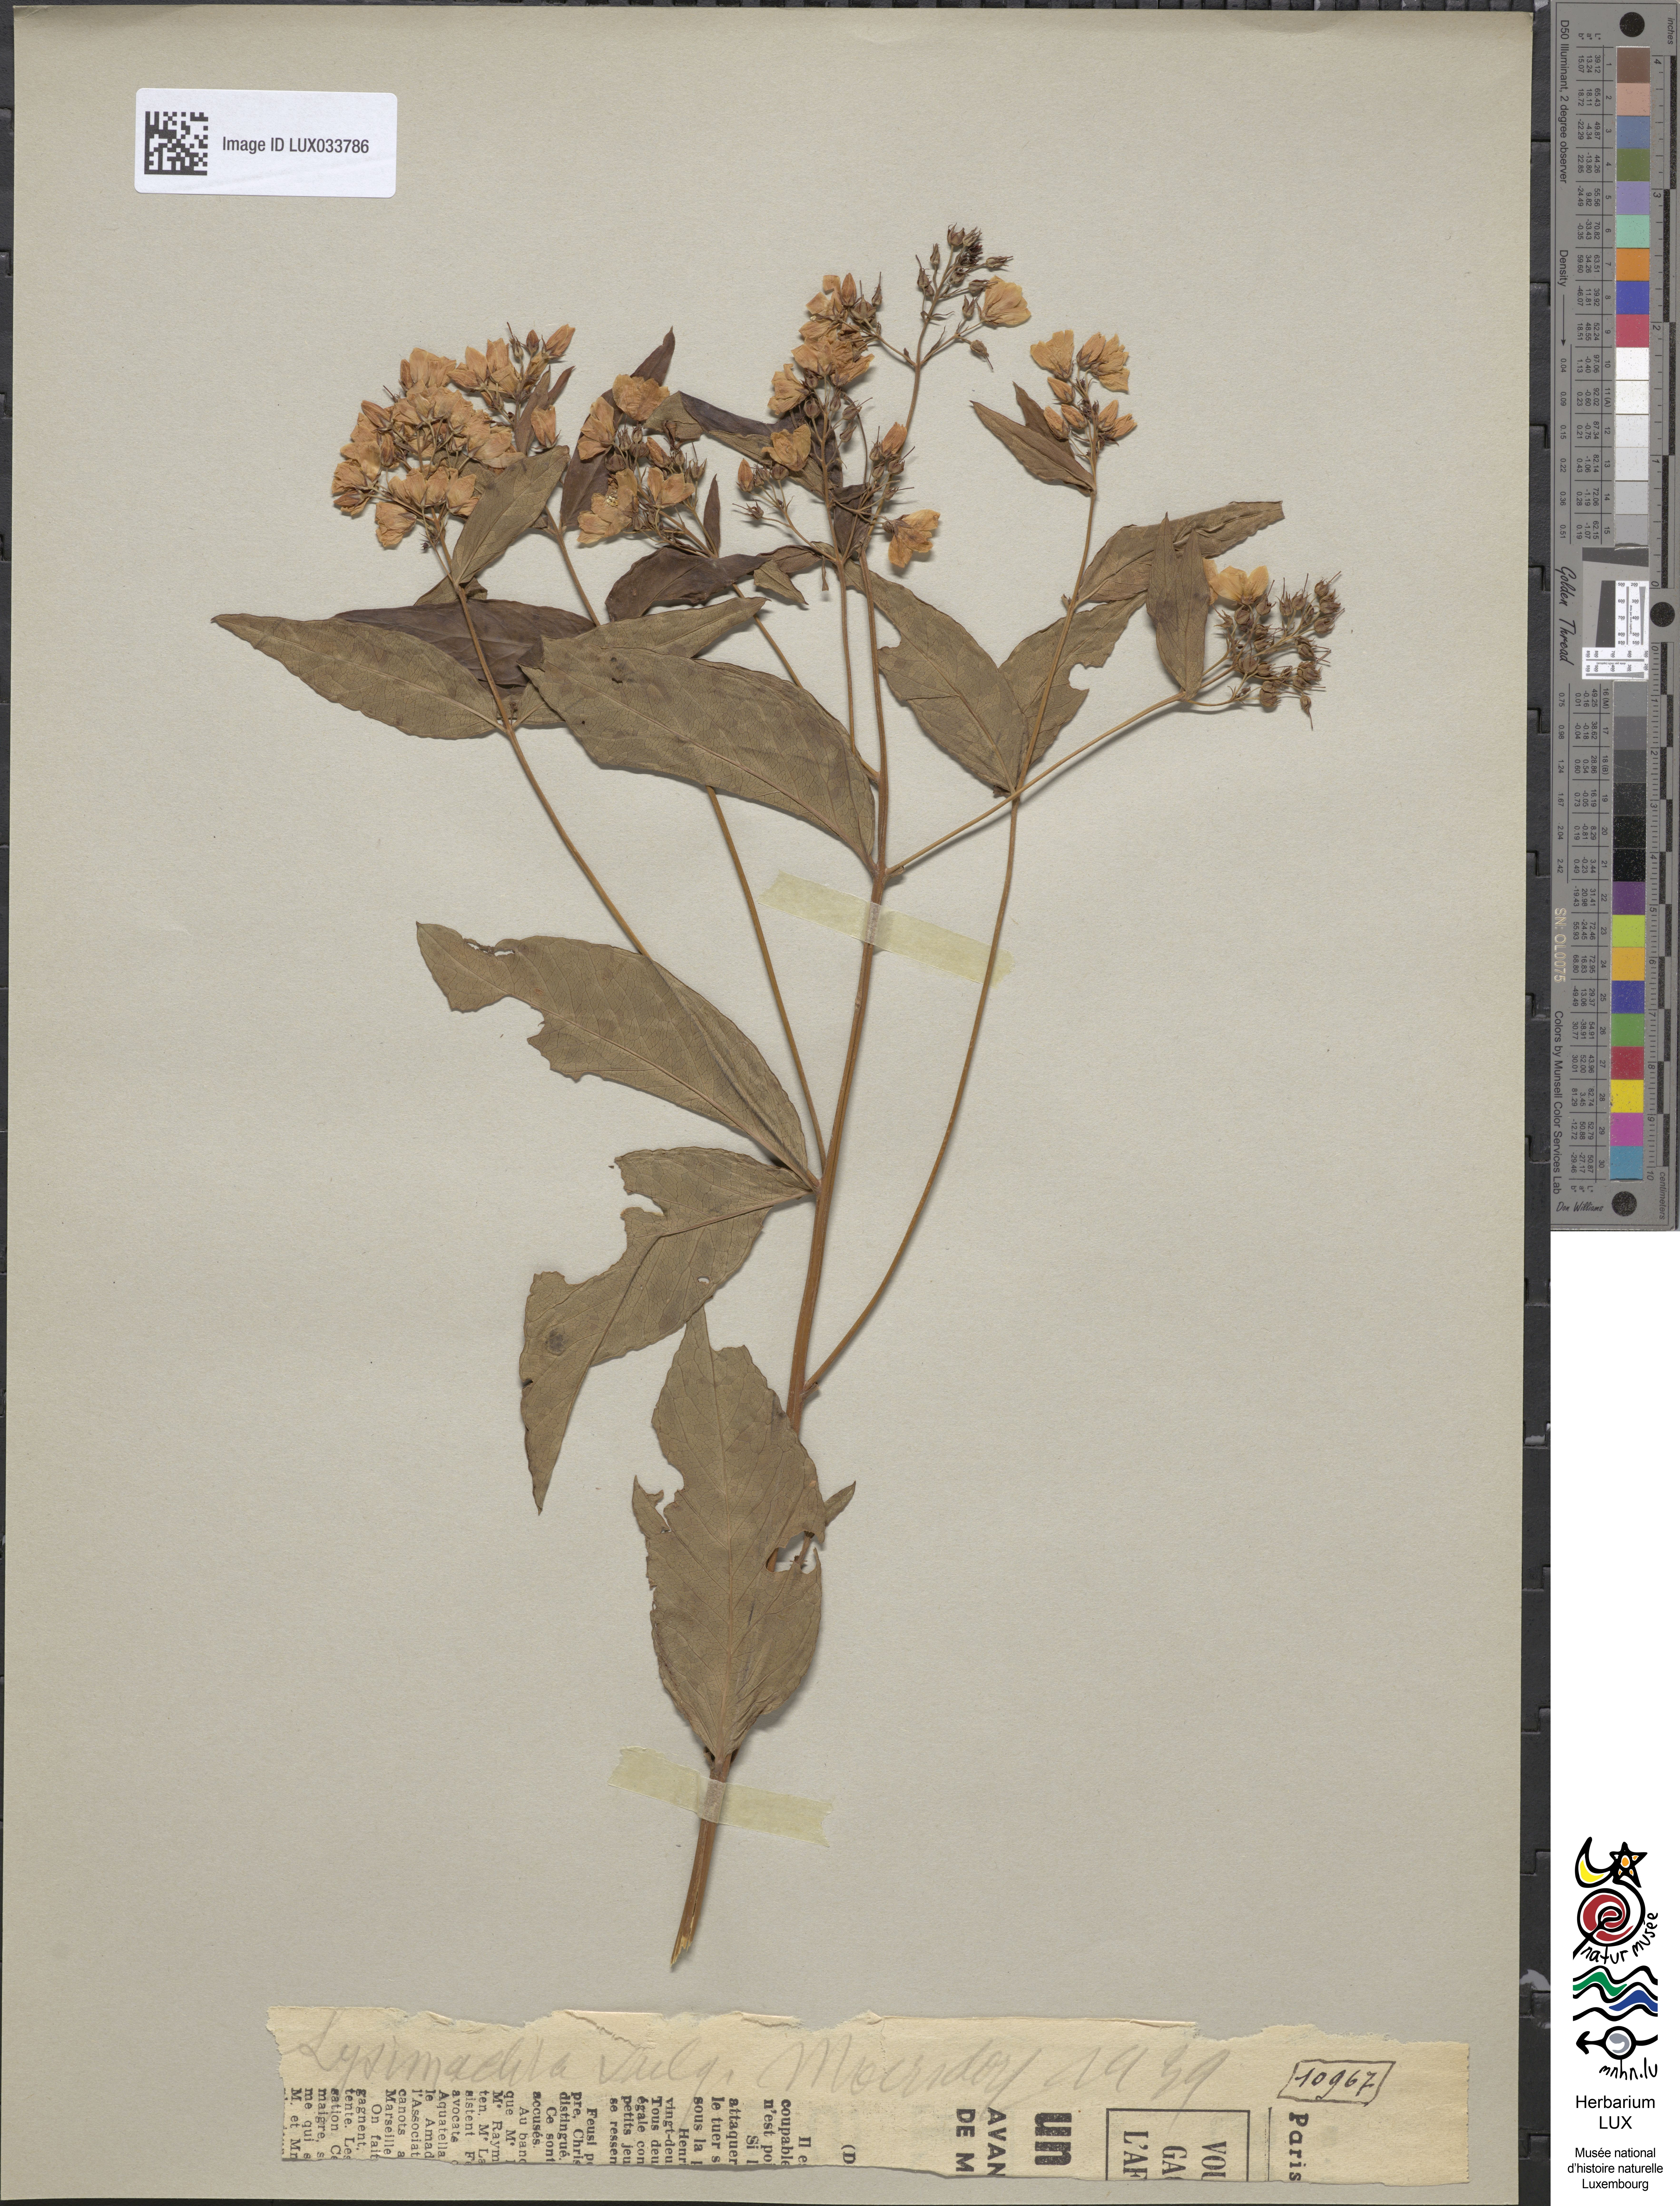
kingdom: Plantae
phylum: Tracheophyta
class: Magnoliopsida
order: Ericales
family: Primulaceae
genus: Lysimachia
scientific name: Lysimachia vulgaris
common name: Yellow loosestrife
